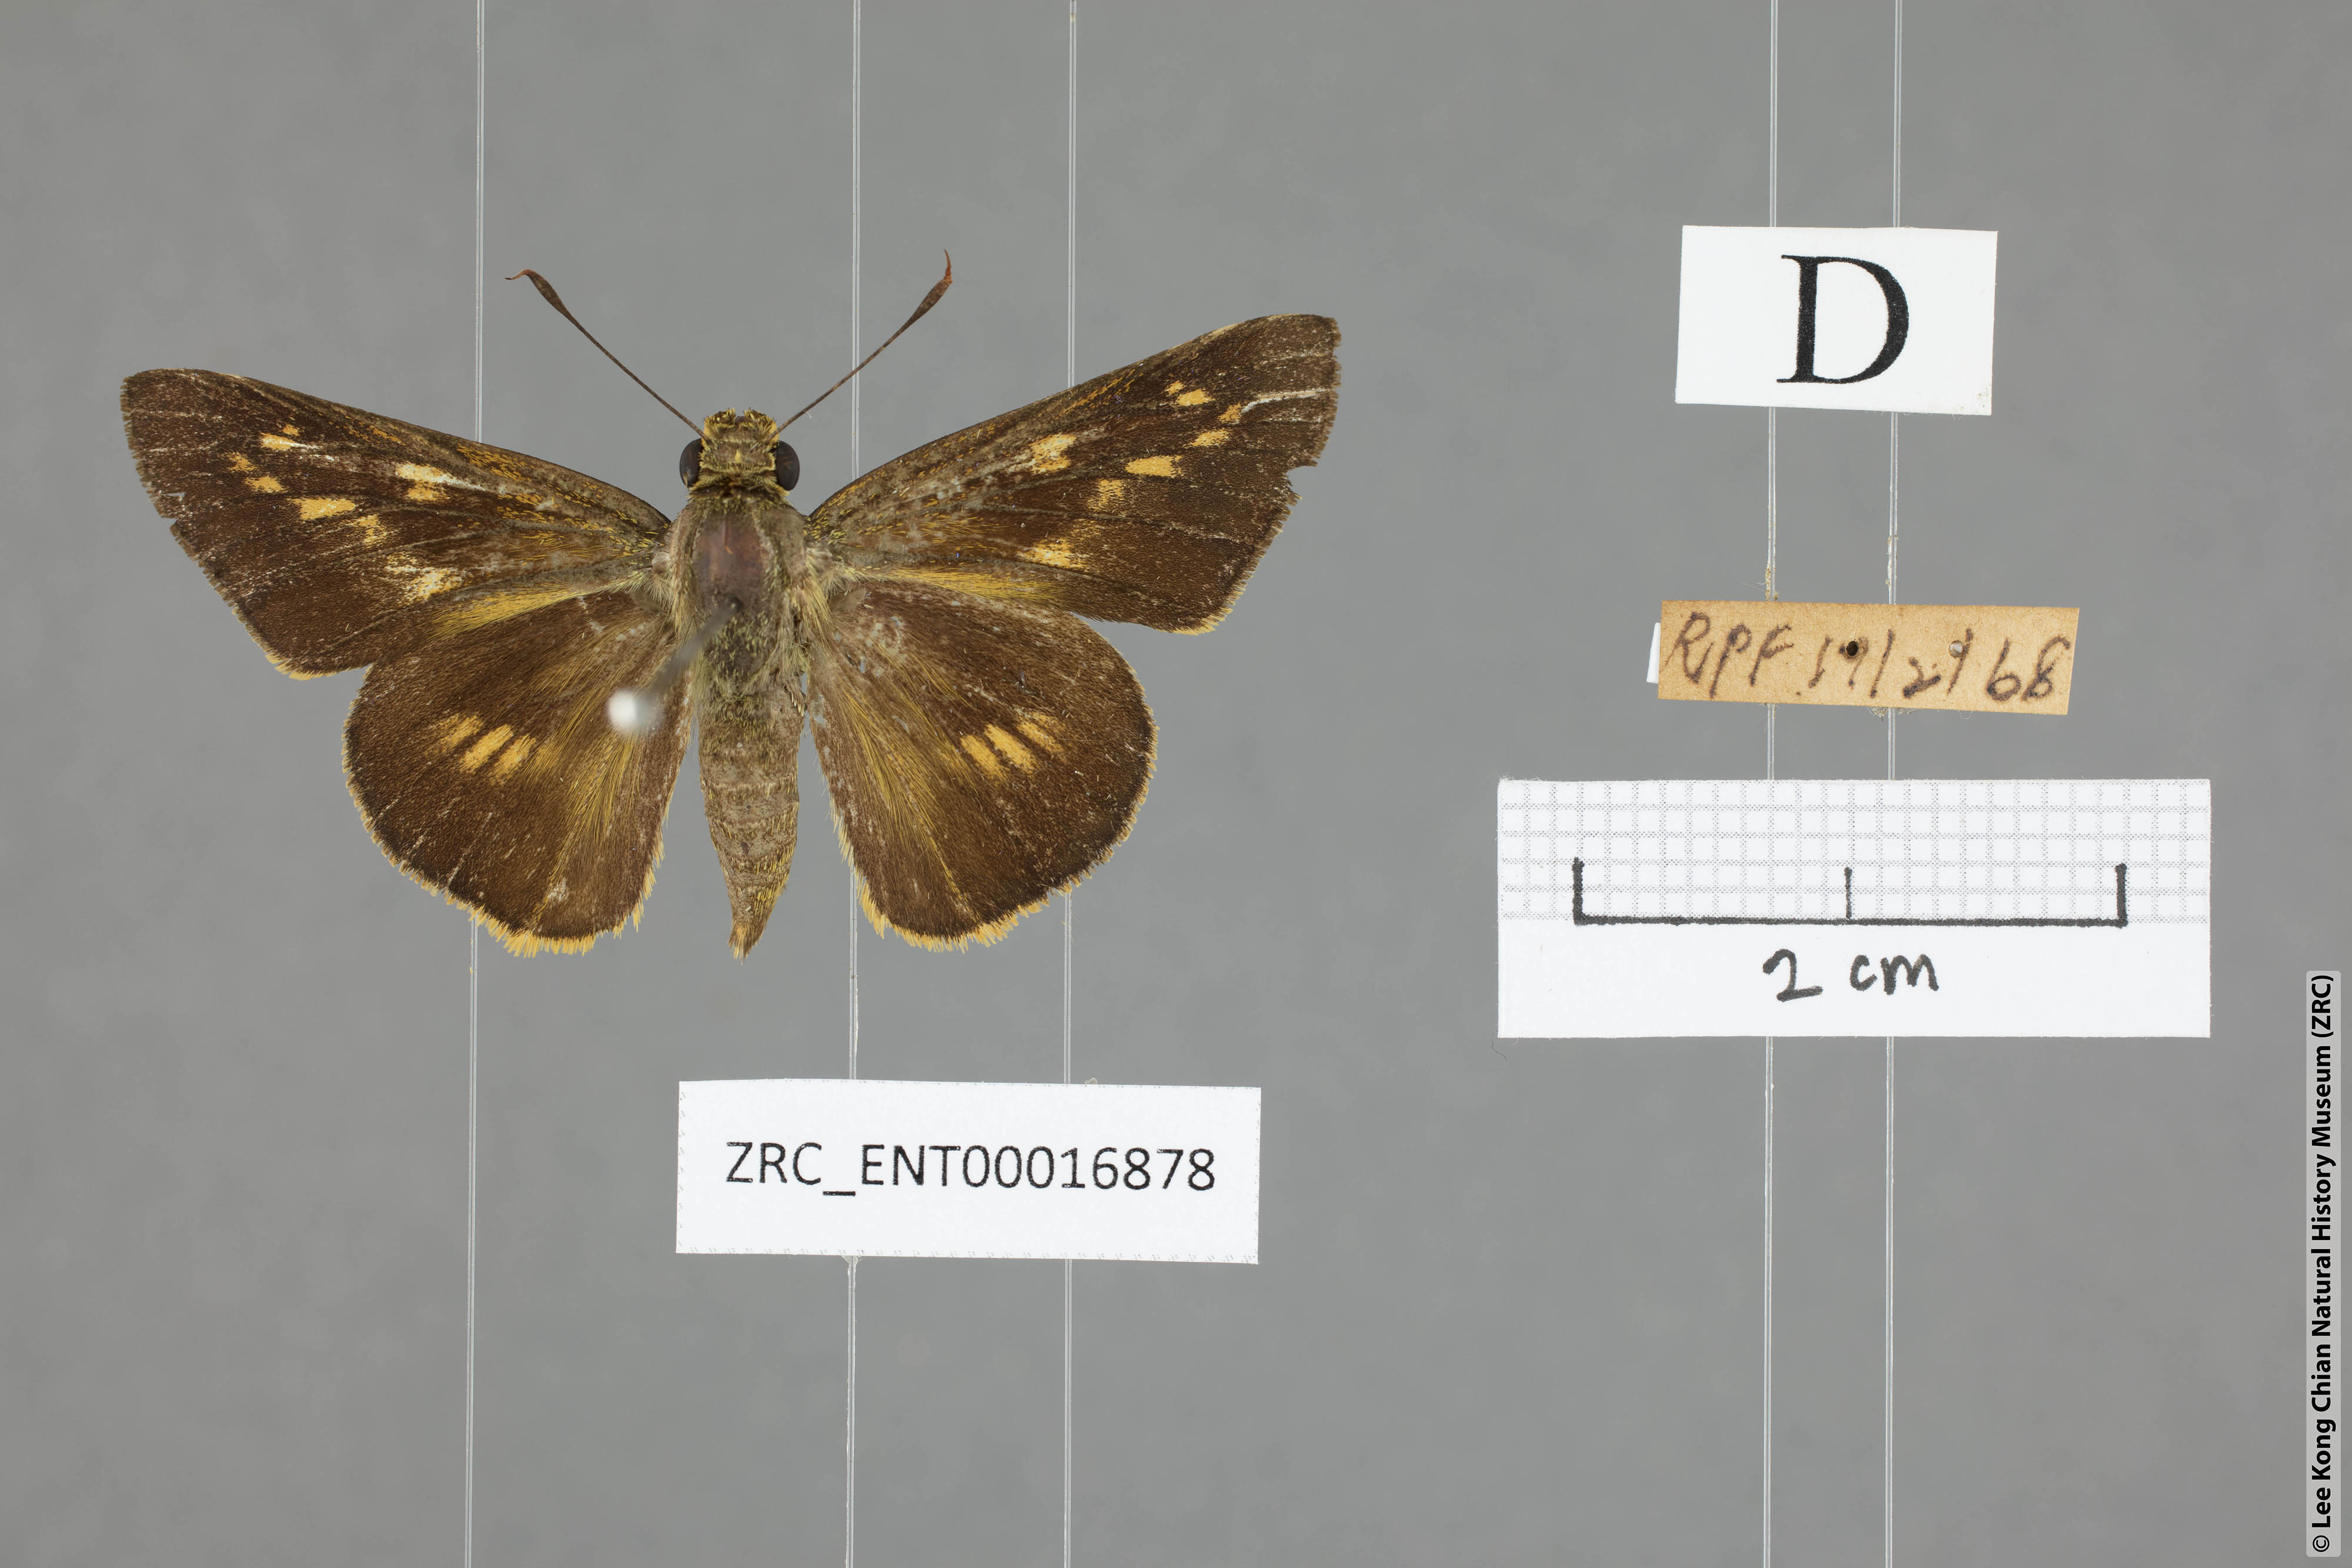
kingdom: Animalia
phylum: Arthropoda
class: Insecta
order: Lepidoptera
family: Hesperiidae
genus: Cephrenes
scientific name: Cephrenes
